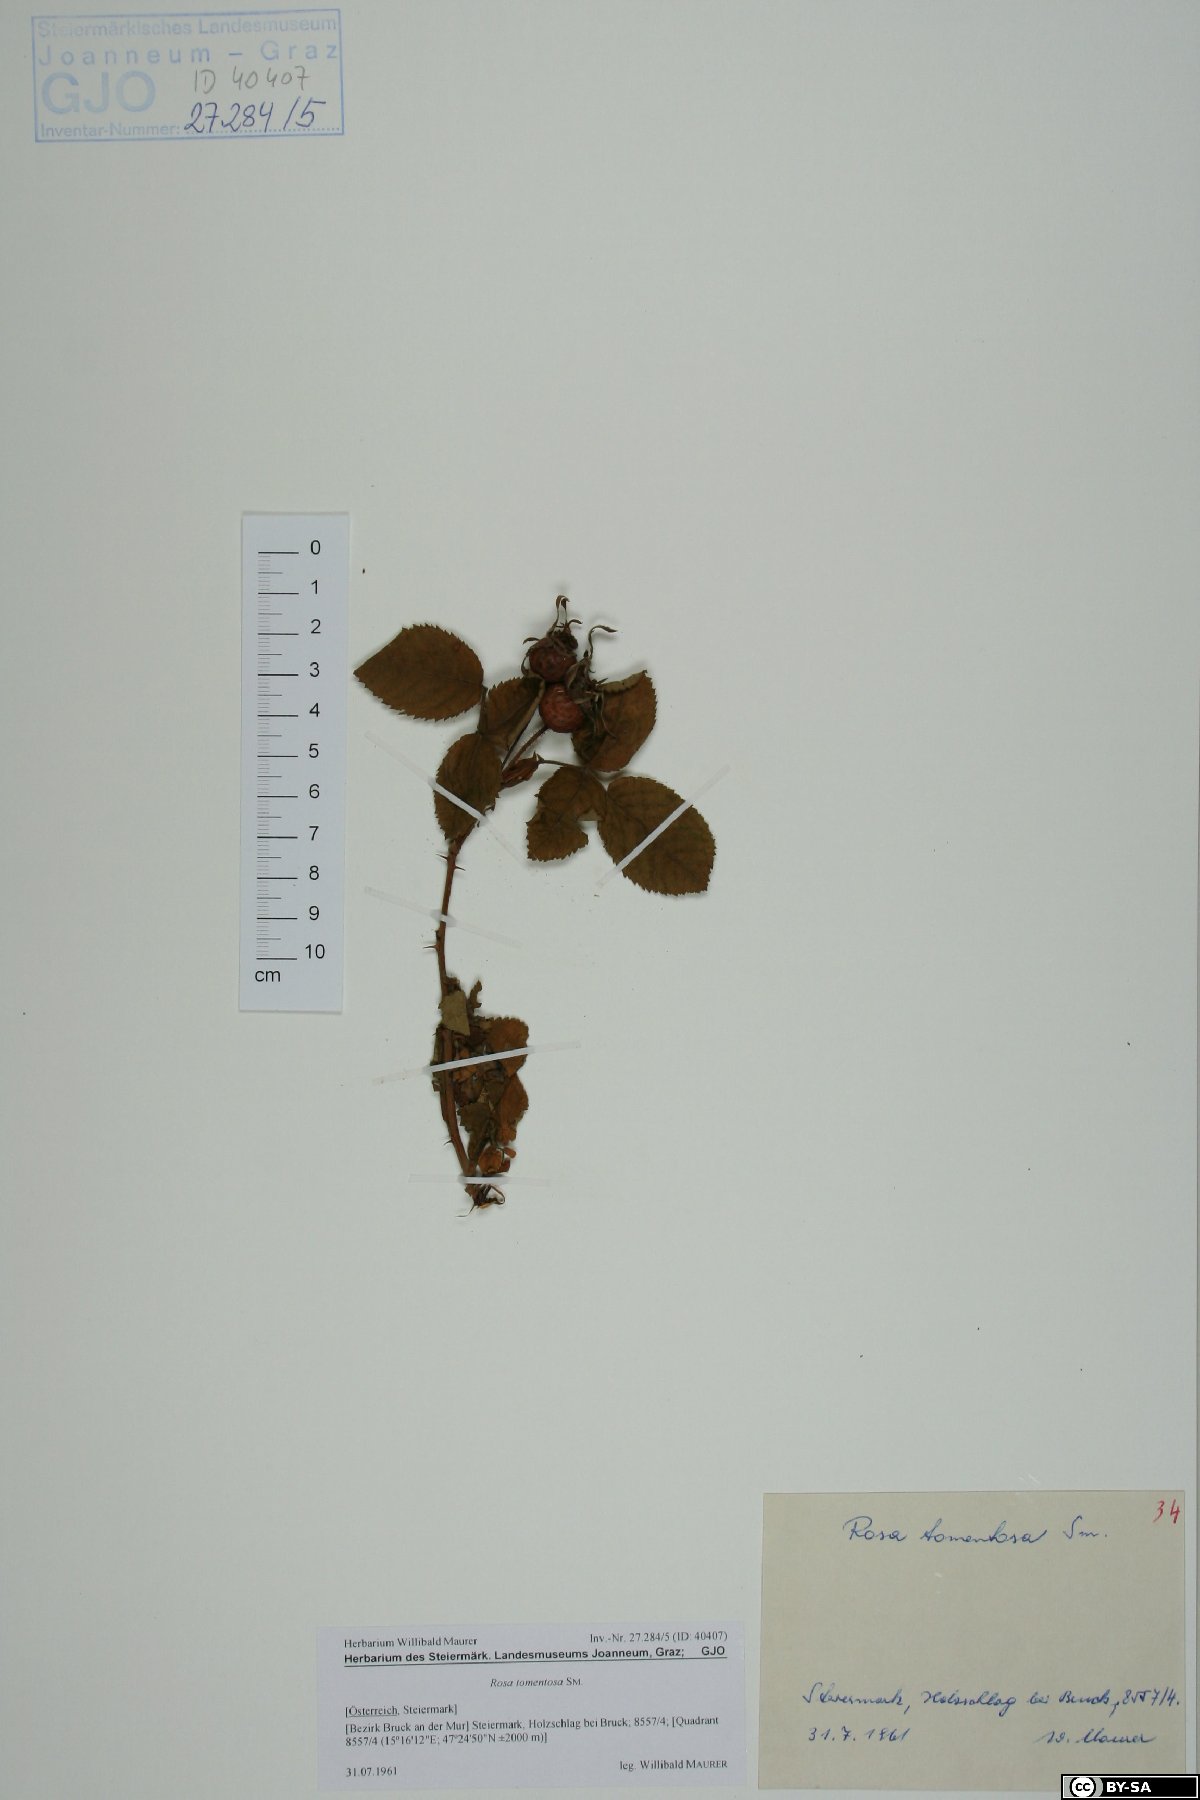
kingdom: Plantae
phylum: Tracheophyta
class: Magnoliopsida
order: Rosales
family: Rosaceae
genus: Rosa
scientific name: Rosa tomentosa
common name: Downy rose
